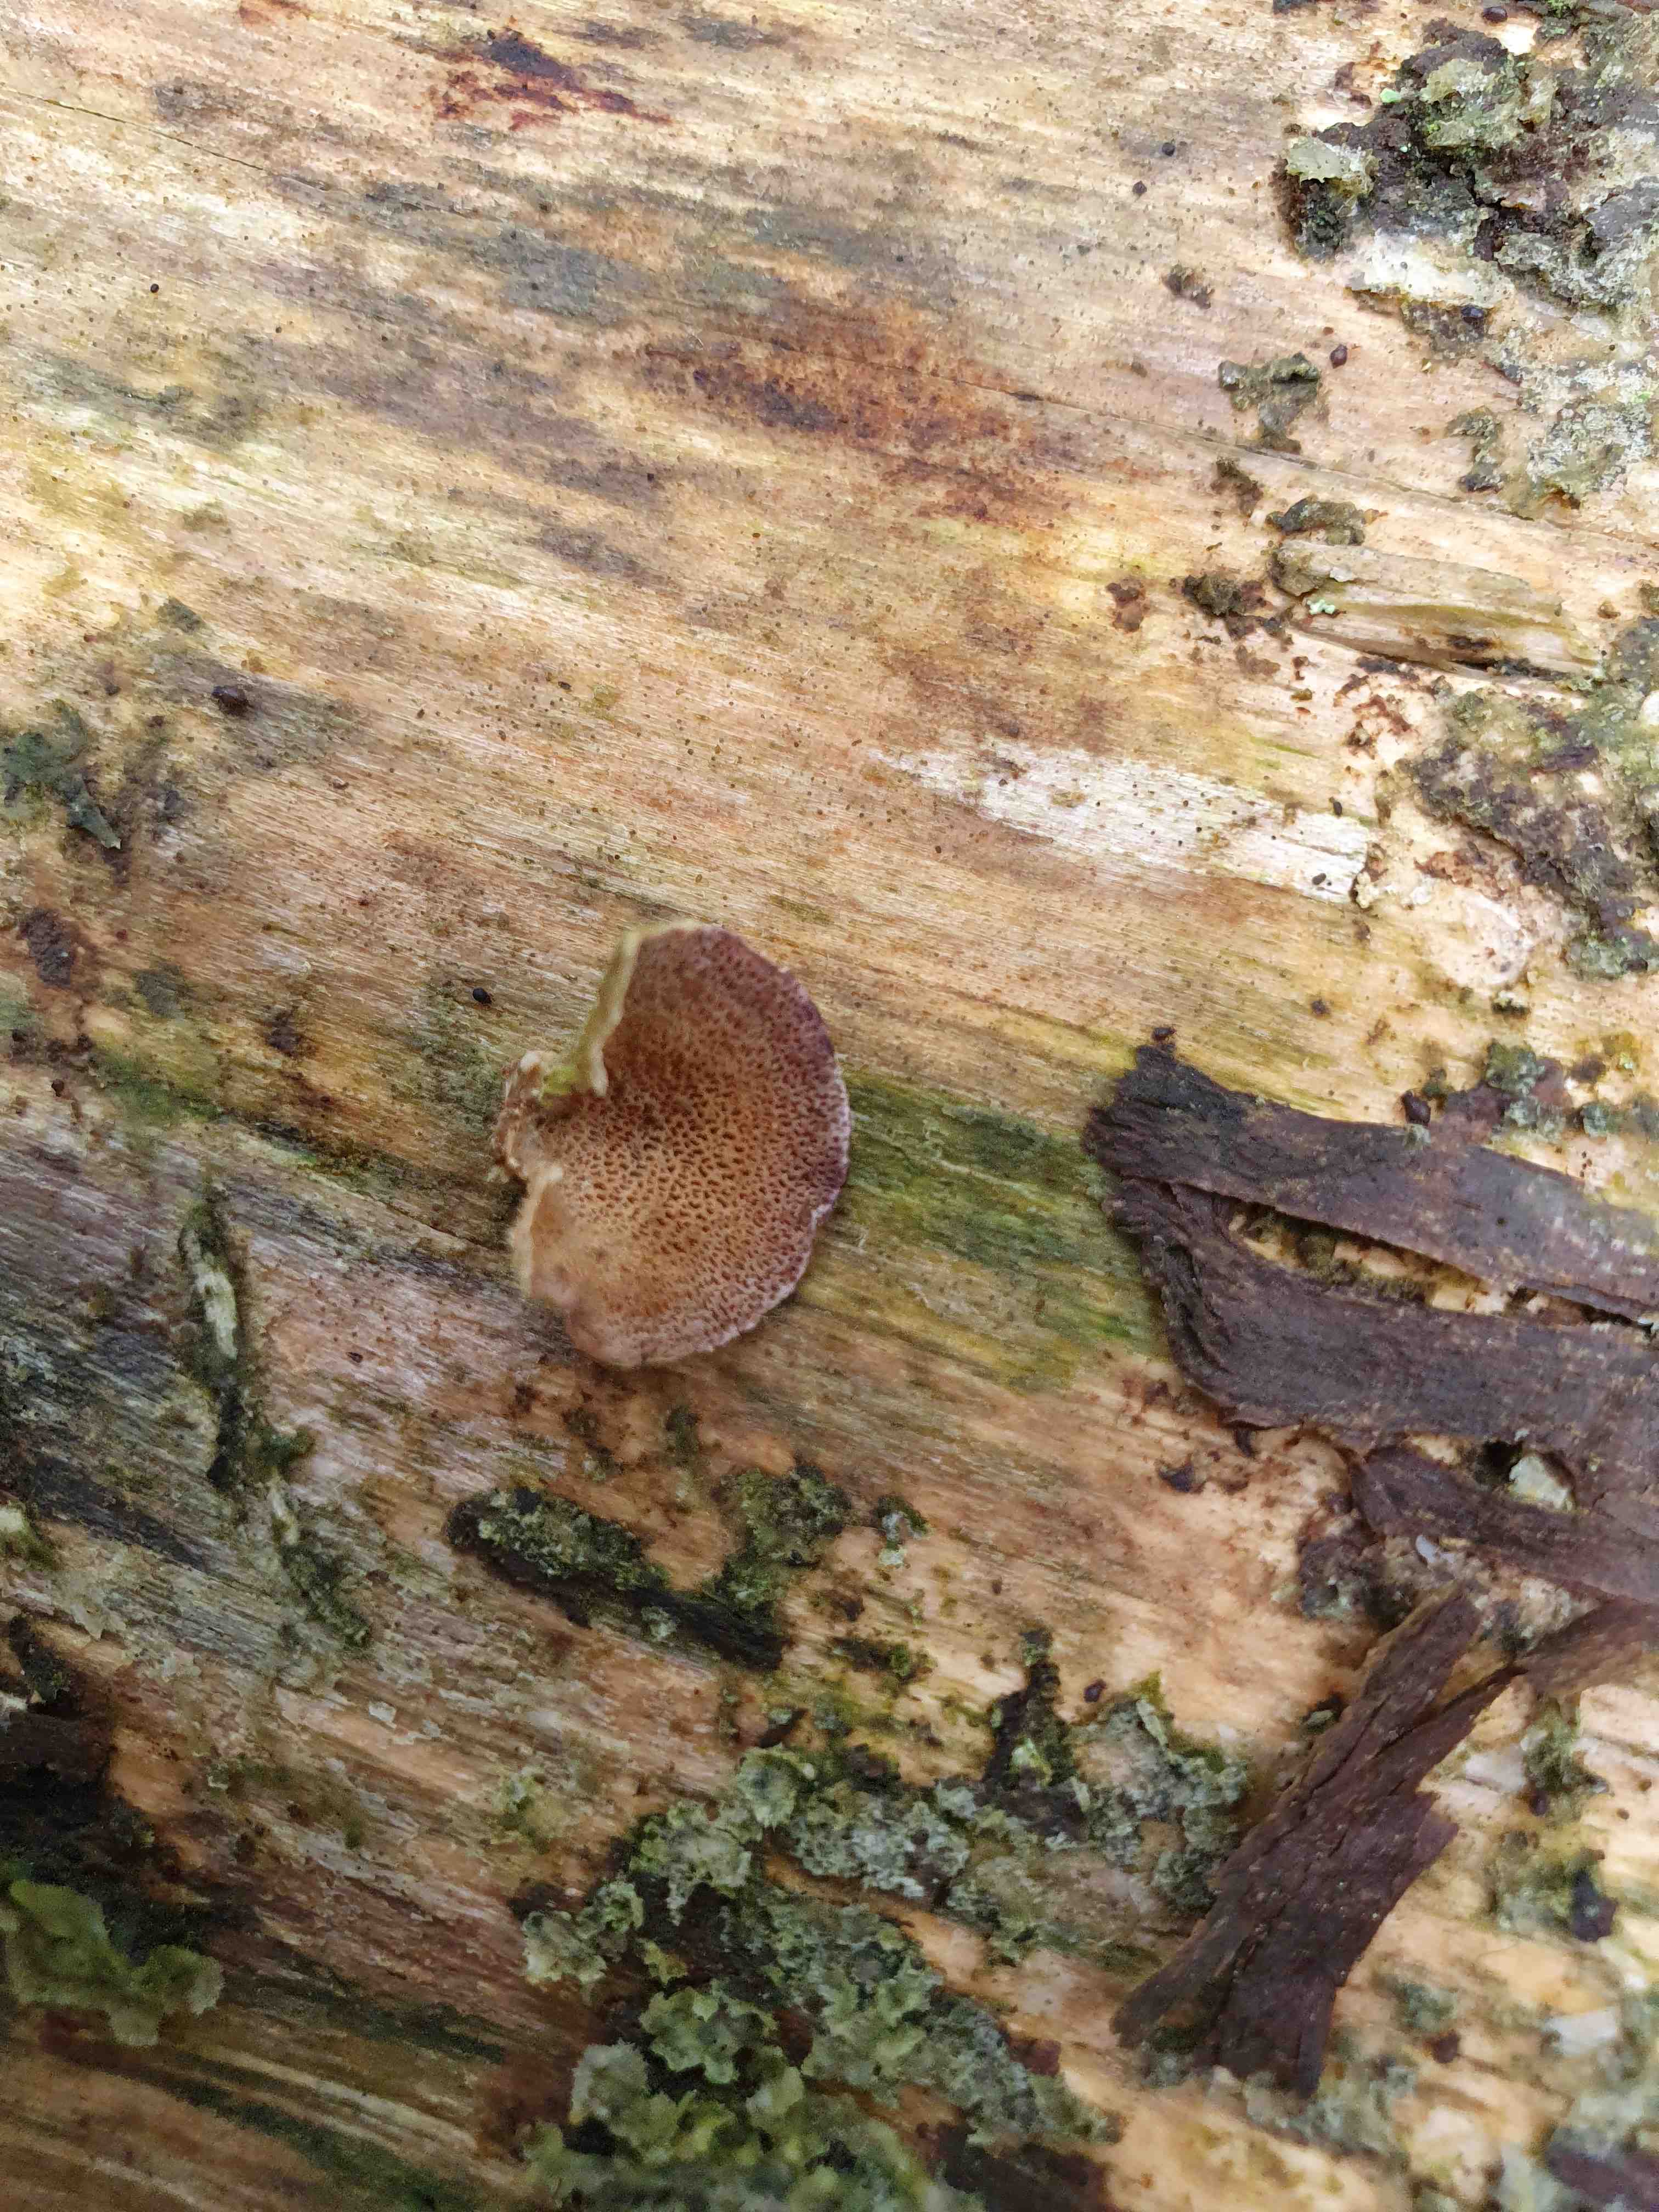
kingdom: Fungi
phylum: Basidiomycota
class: Agaricomycetes
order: Hymenochaetales
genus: Trichaptum
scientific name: Trichaptum abietinum
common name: almindelig violporesvamp
